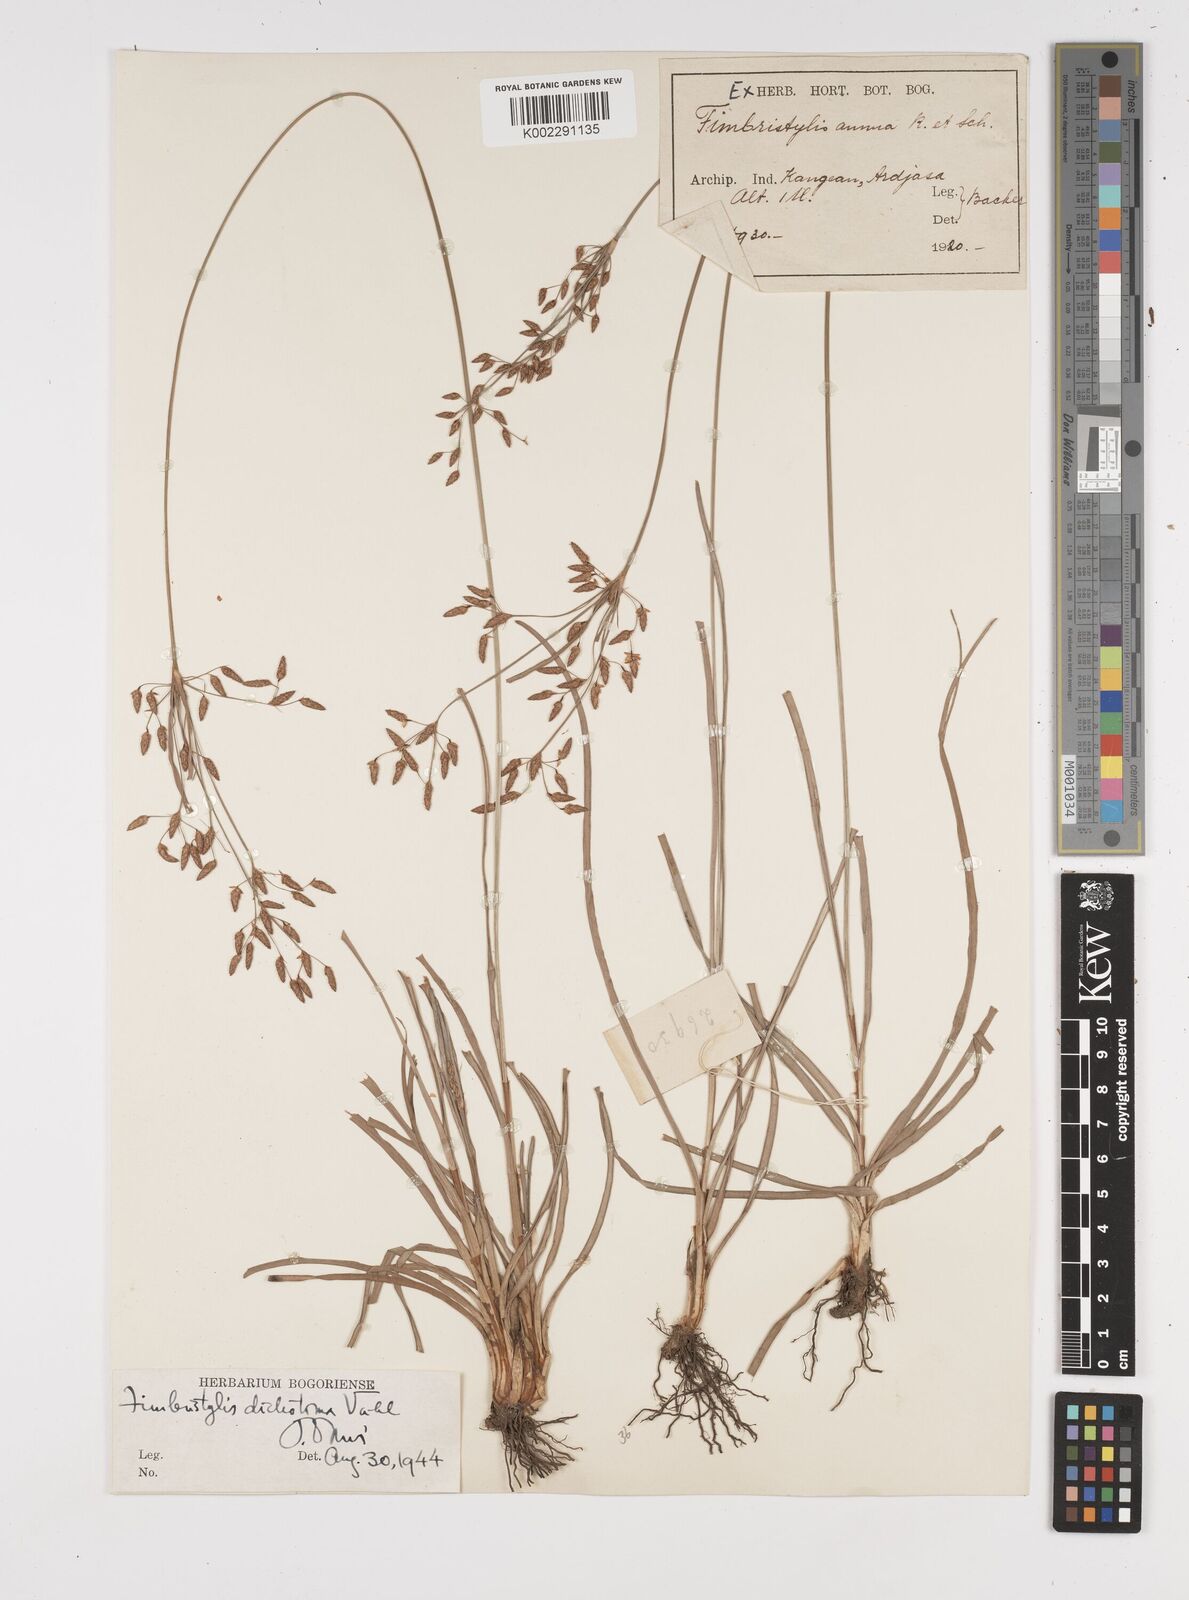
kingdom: Plantae
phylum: Tracheophyta
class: Liliopsida
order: Poales
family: Cyperaceae
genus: Fimbristylis
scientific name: Fimbristylis dichotoma
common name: Forked fimbry
